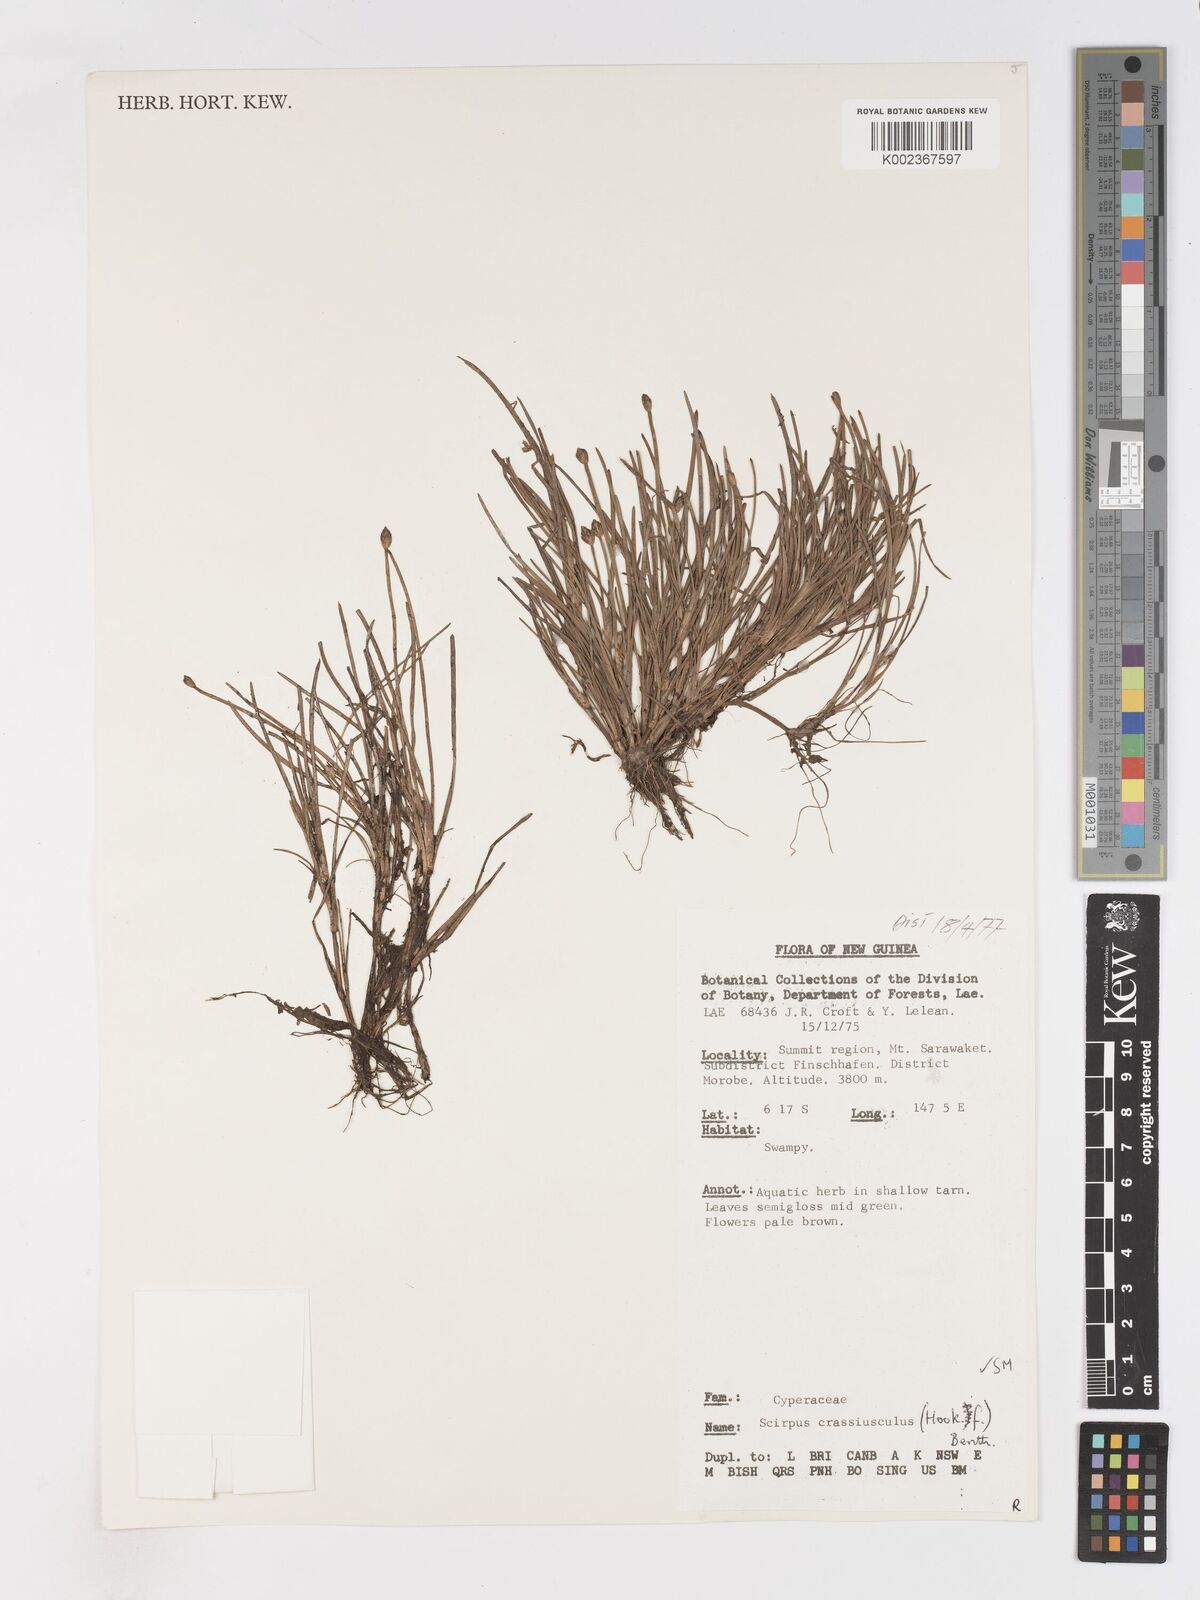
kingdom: Plantae
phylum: Tracheophyta
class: Liliopsida
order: Poales
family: Cyperaceae
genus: Isolepis
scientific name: Isolepis crassiuscula
